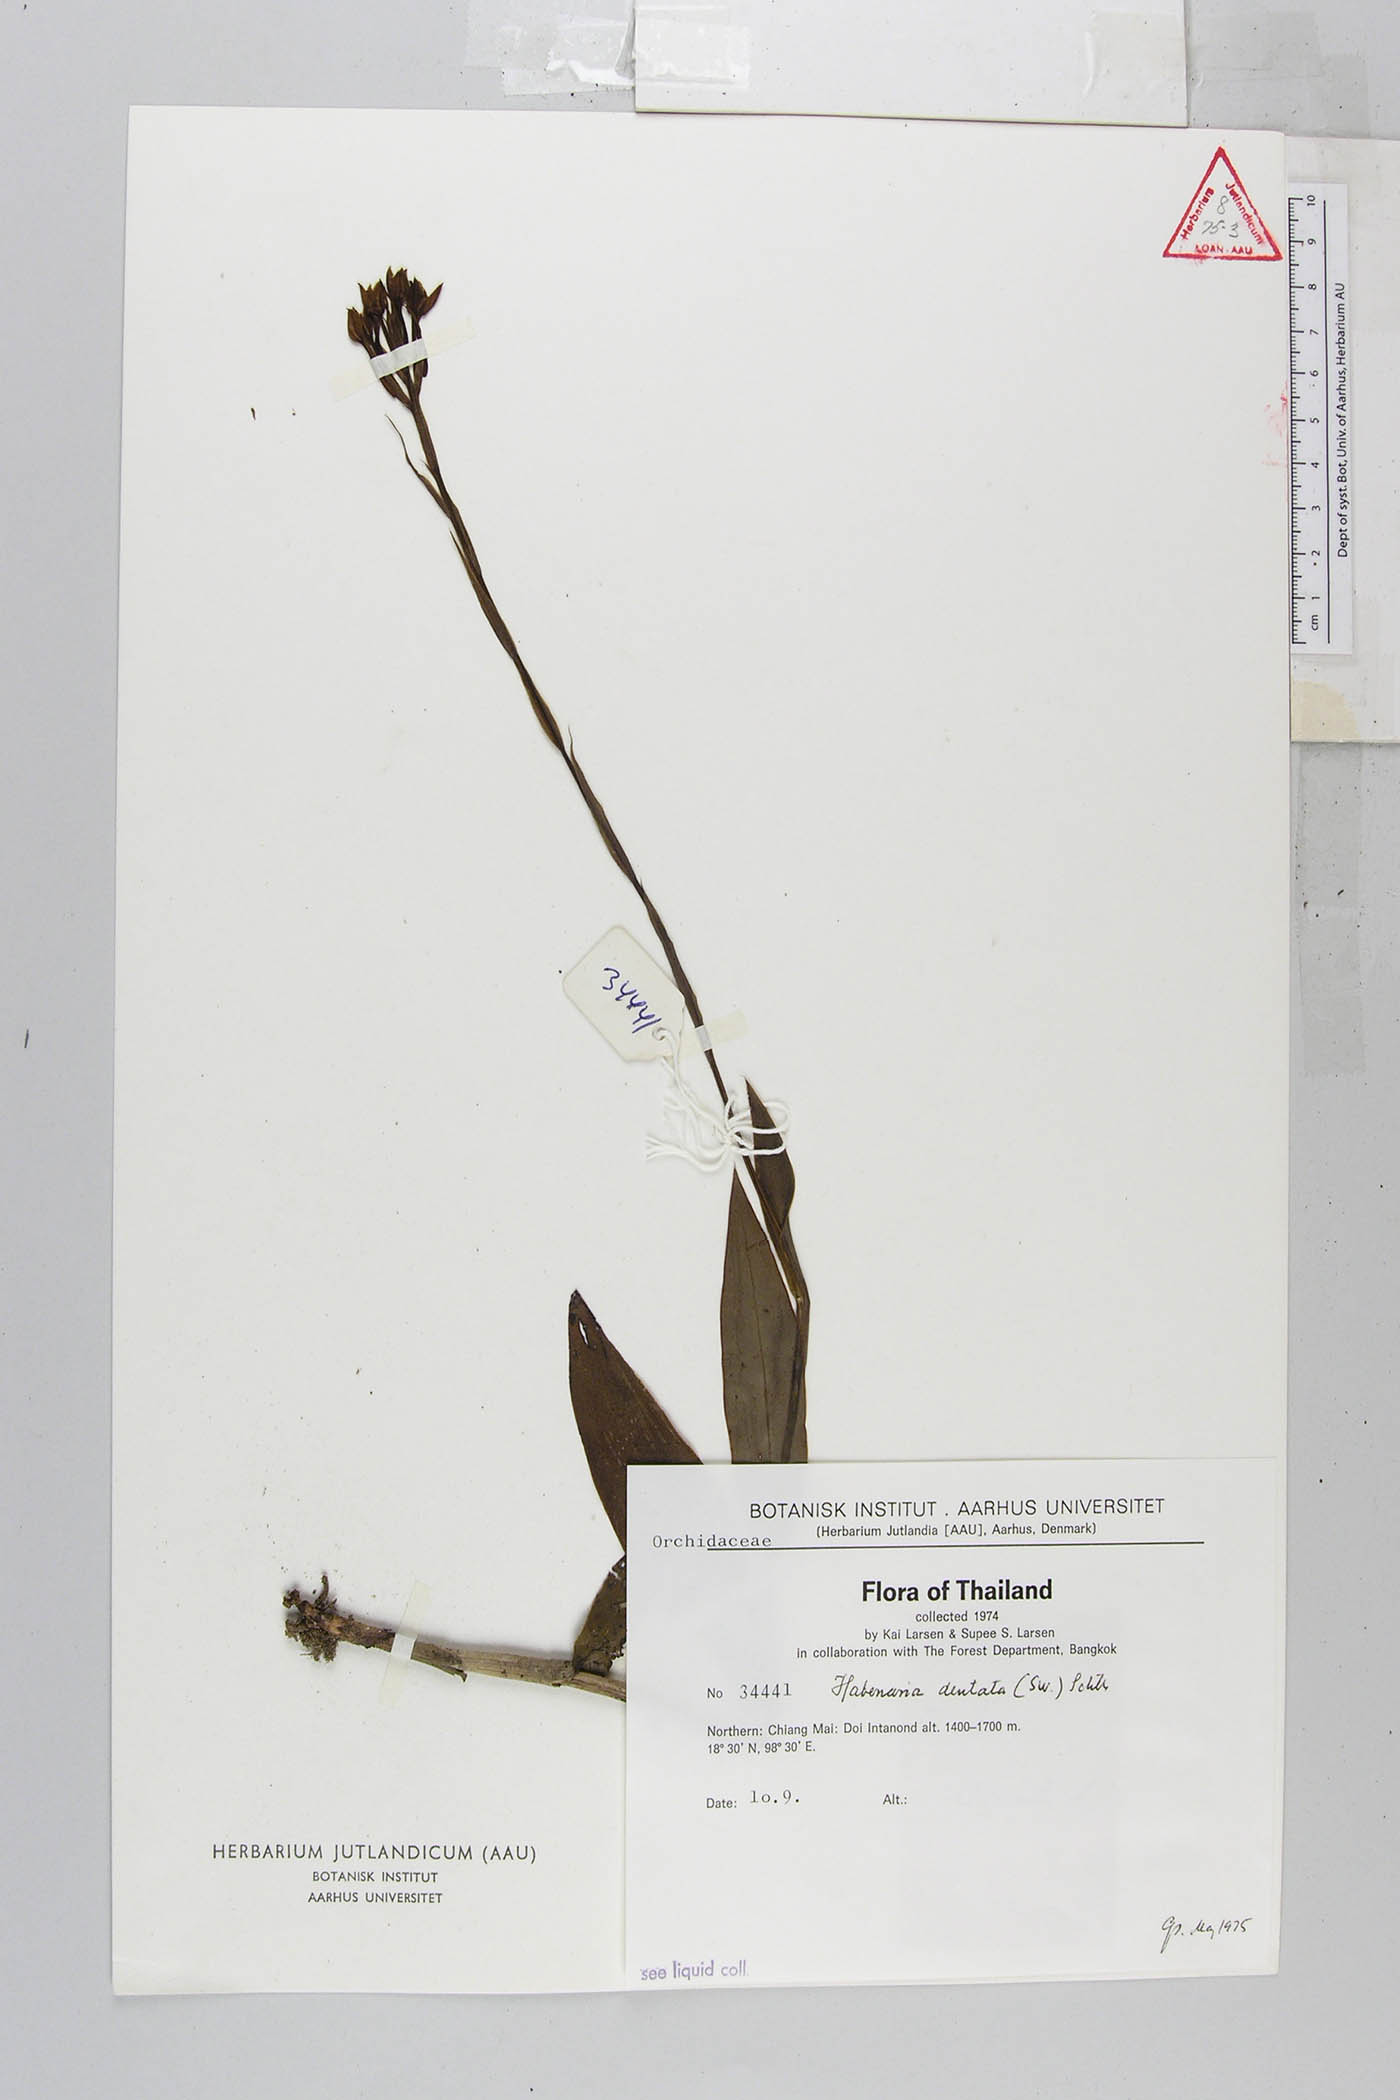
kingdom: Plantae
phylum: Tracheophyta
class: Liliopsida
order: Asparagales
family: Orchidaceae
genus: Habenaria
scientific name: Habenaria dentata
